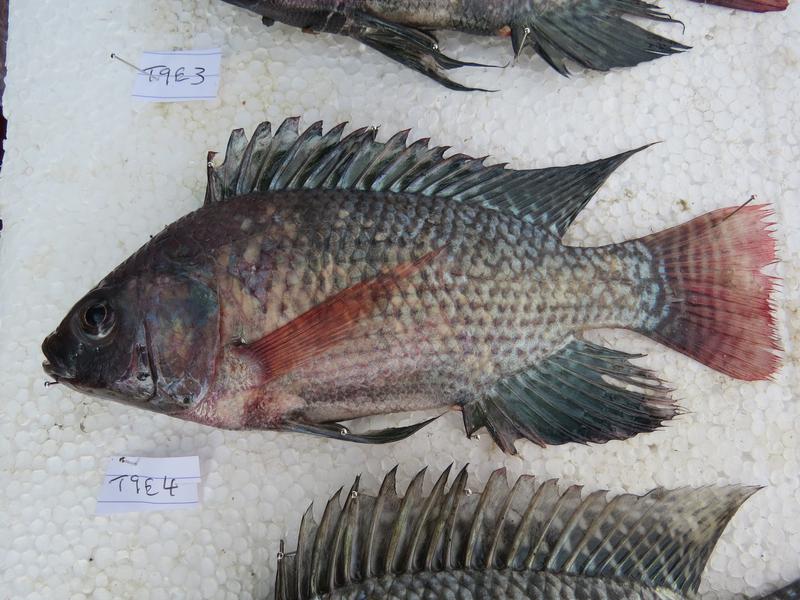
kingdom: Animalia
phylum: Chordata
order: Perciformes
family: Cichlidae
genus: Oreochromis
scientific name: Oreochromis niloticus
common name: Nile tilapia
